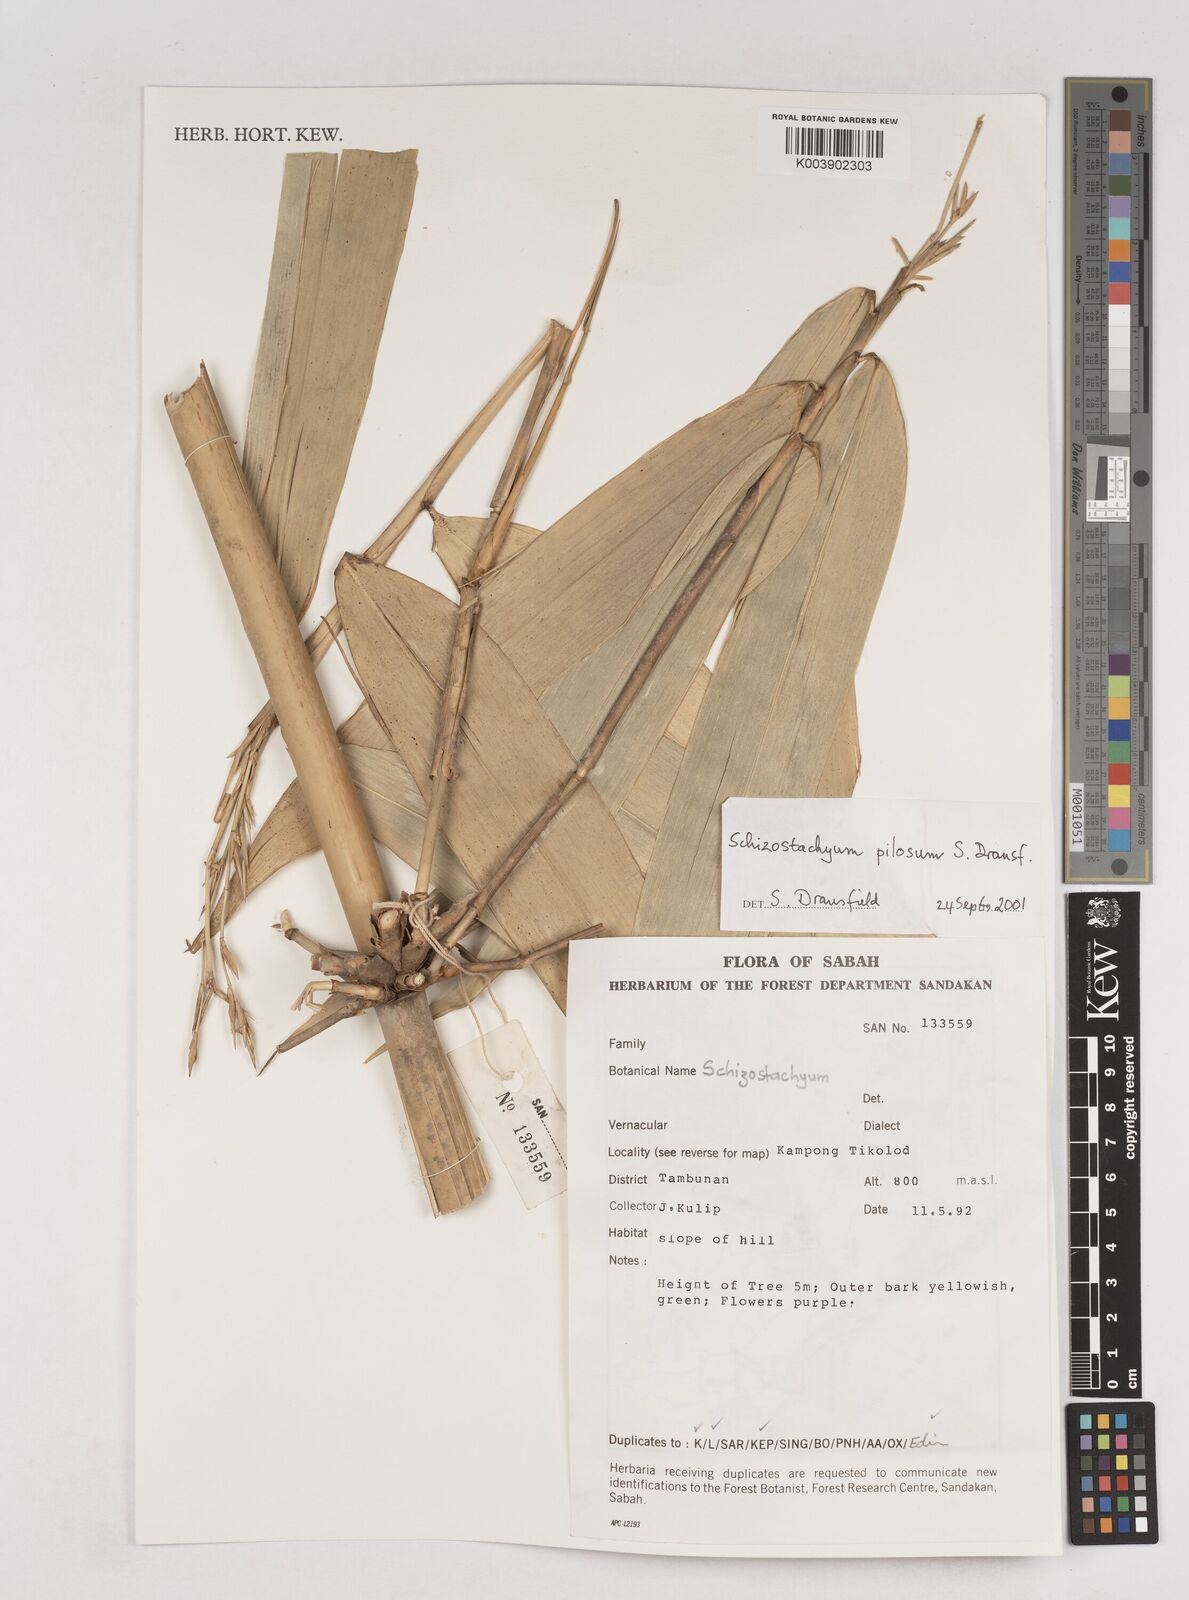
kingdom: Plantae
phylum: Tracheophyta
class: Liliopsida
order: Poales
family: Poaceae
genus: Schizostachyum
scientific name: Schizostachyum pilosum
